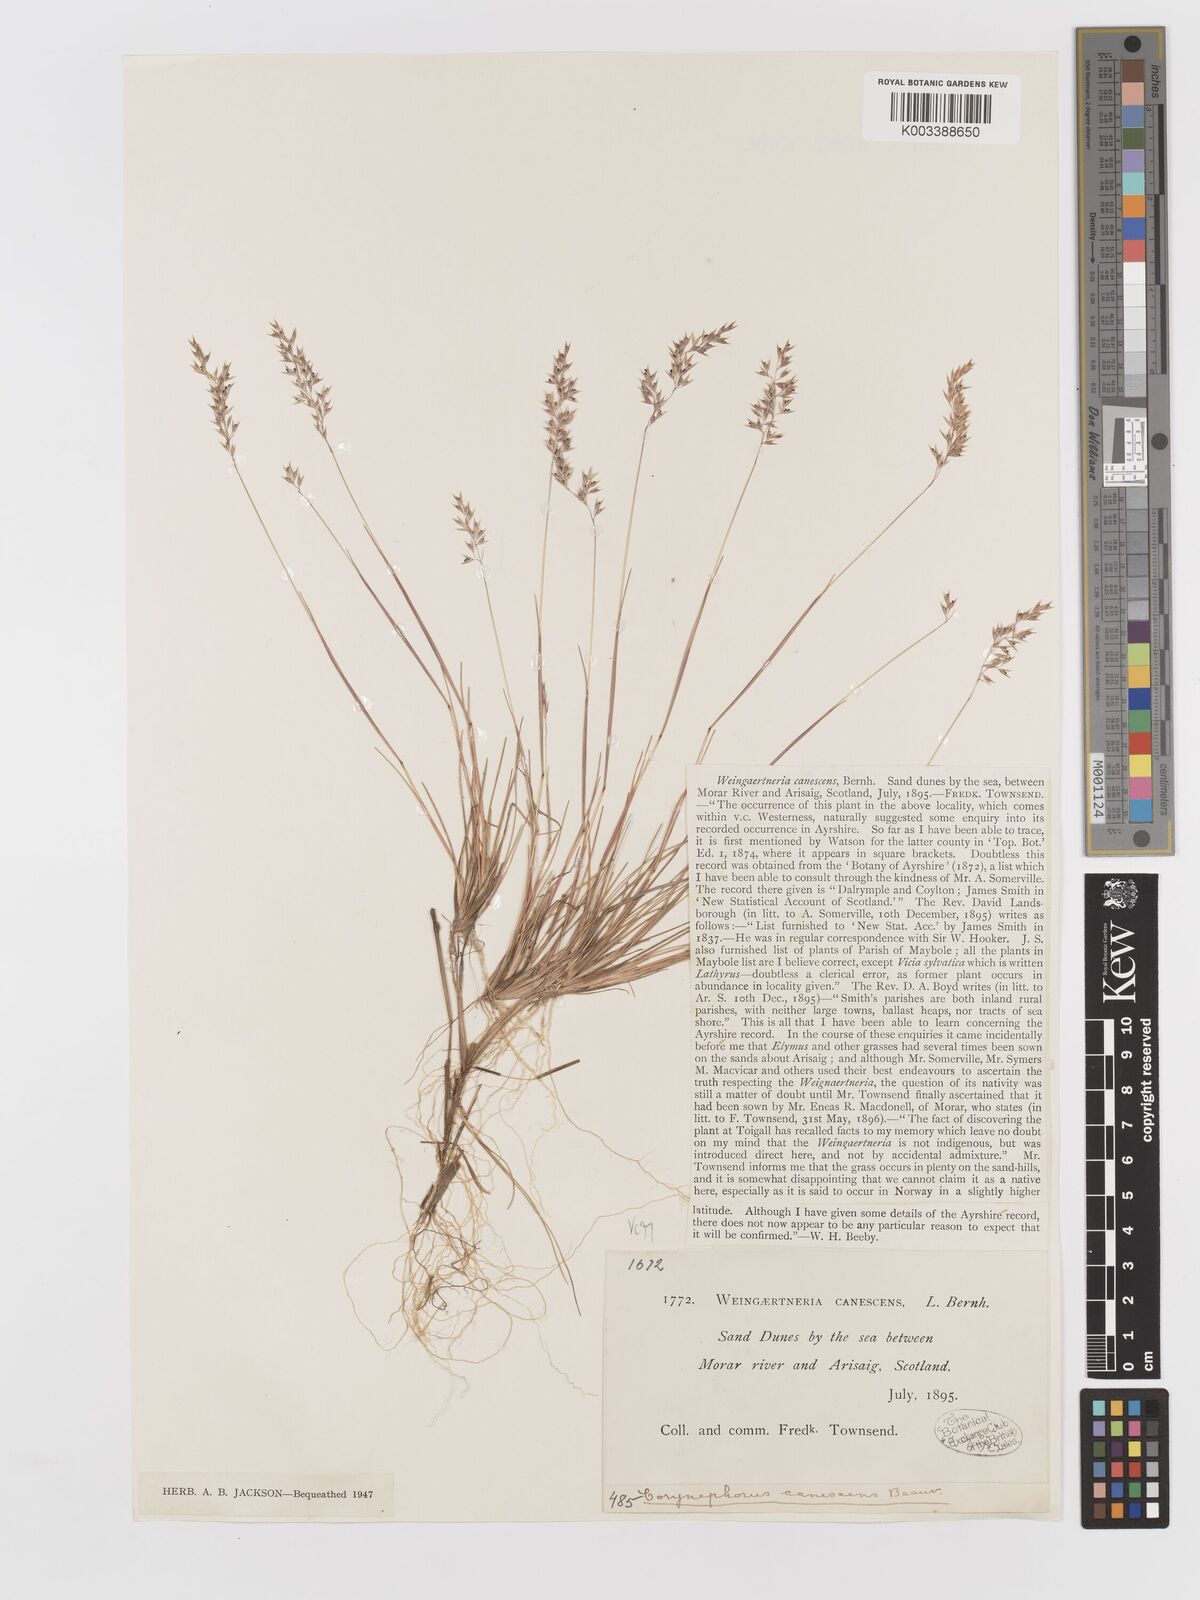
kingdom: Plantae
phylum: Tracheophyta
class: Liliopsida
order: Poales
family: Poaceae
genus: Corynephorus
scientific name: Corynephorus canescens
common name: Grey hair-grass
